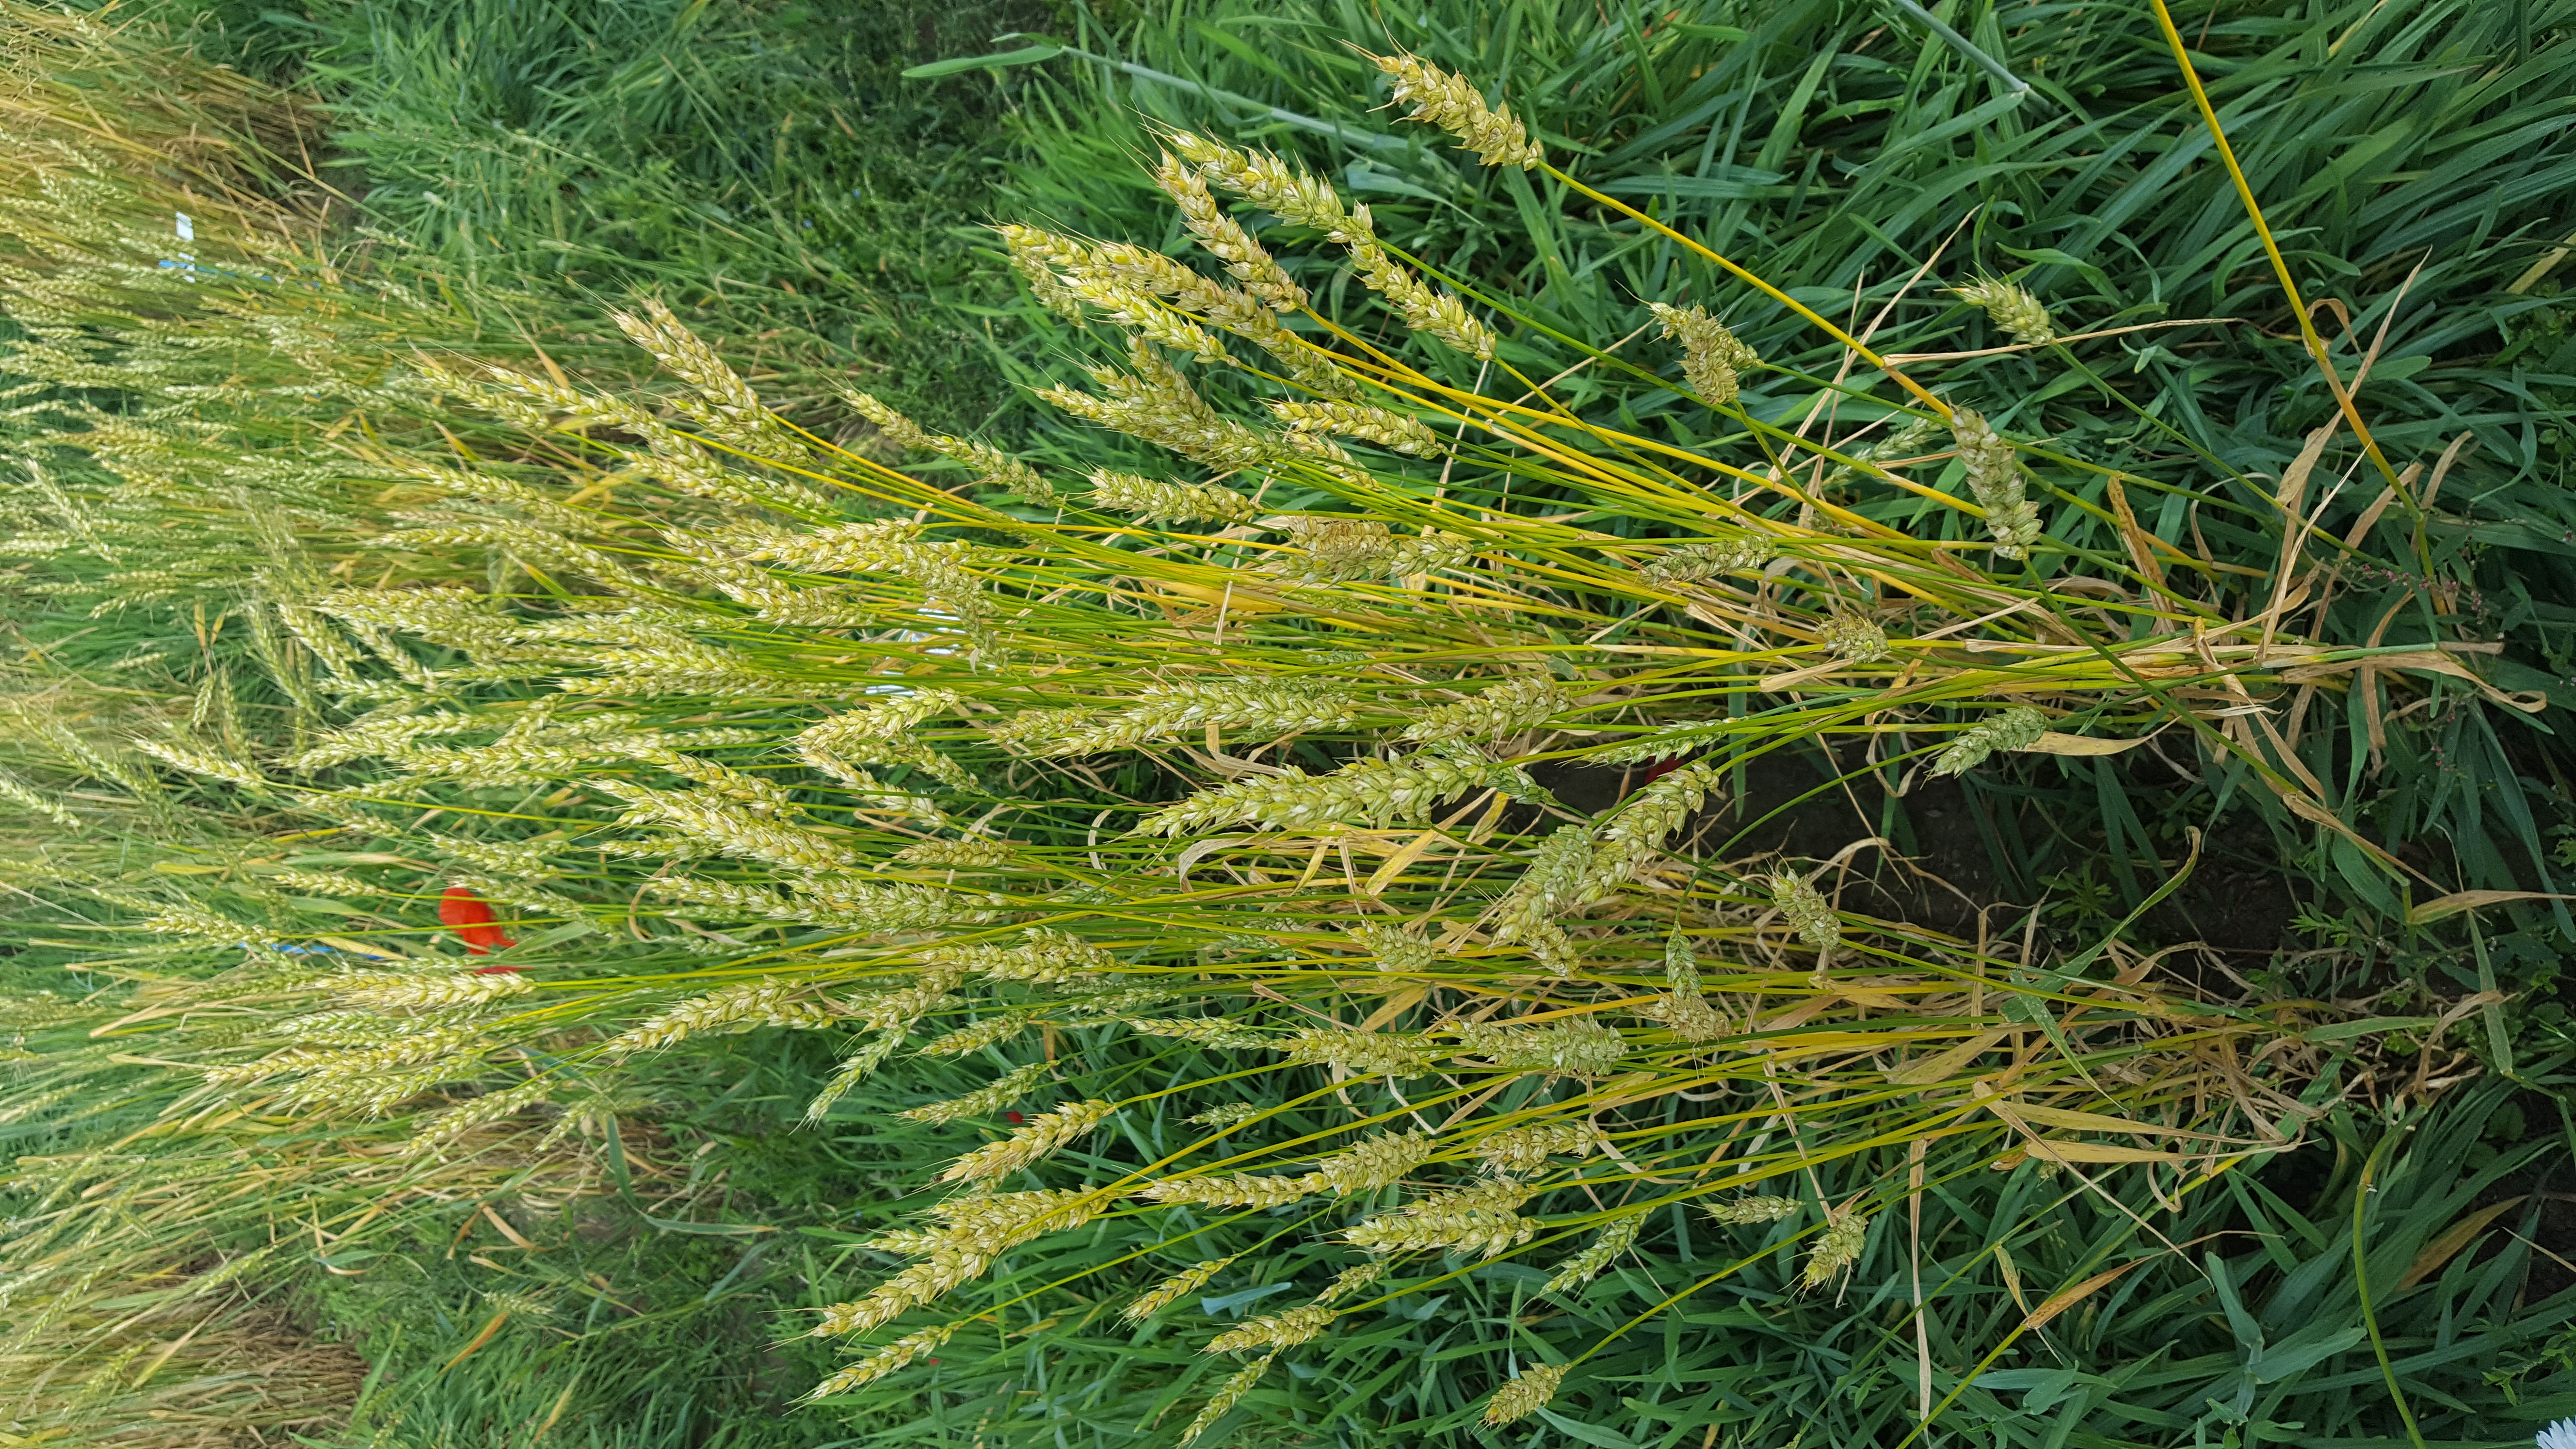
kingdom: Plantae
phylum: Tracheophyta
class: Liliopsida
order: Poales
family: Poaceae
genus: Triticum
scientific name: Triticum aestivum
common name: Common wheat
